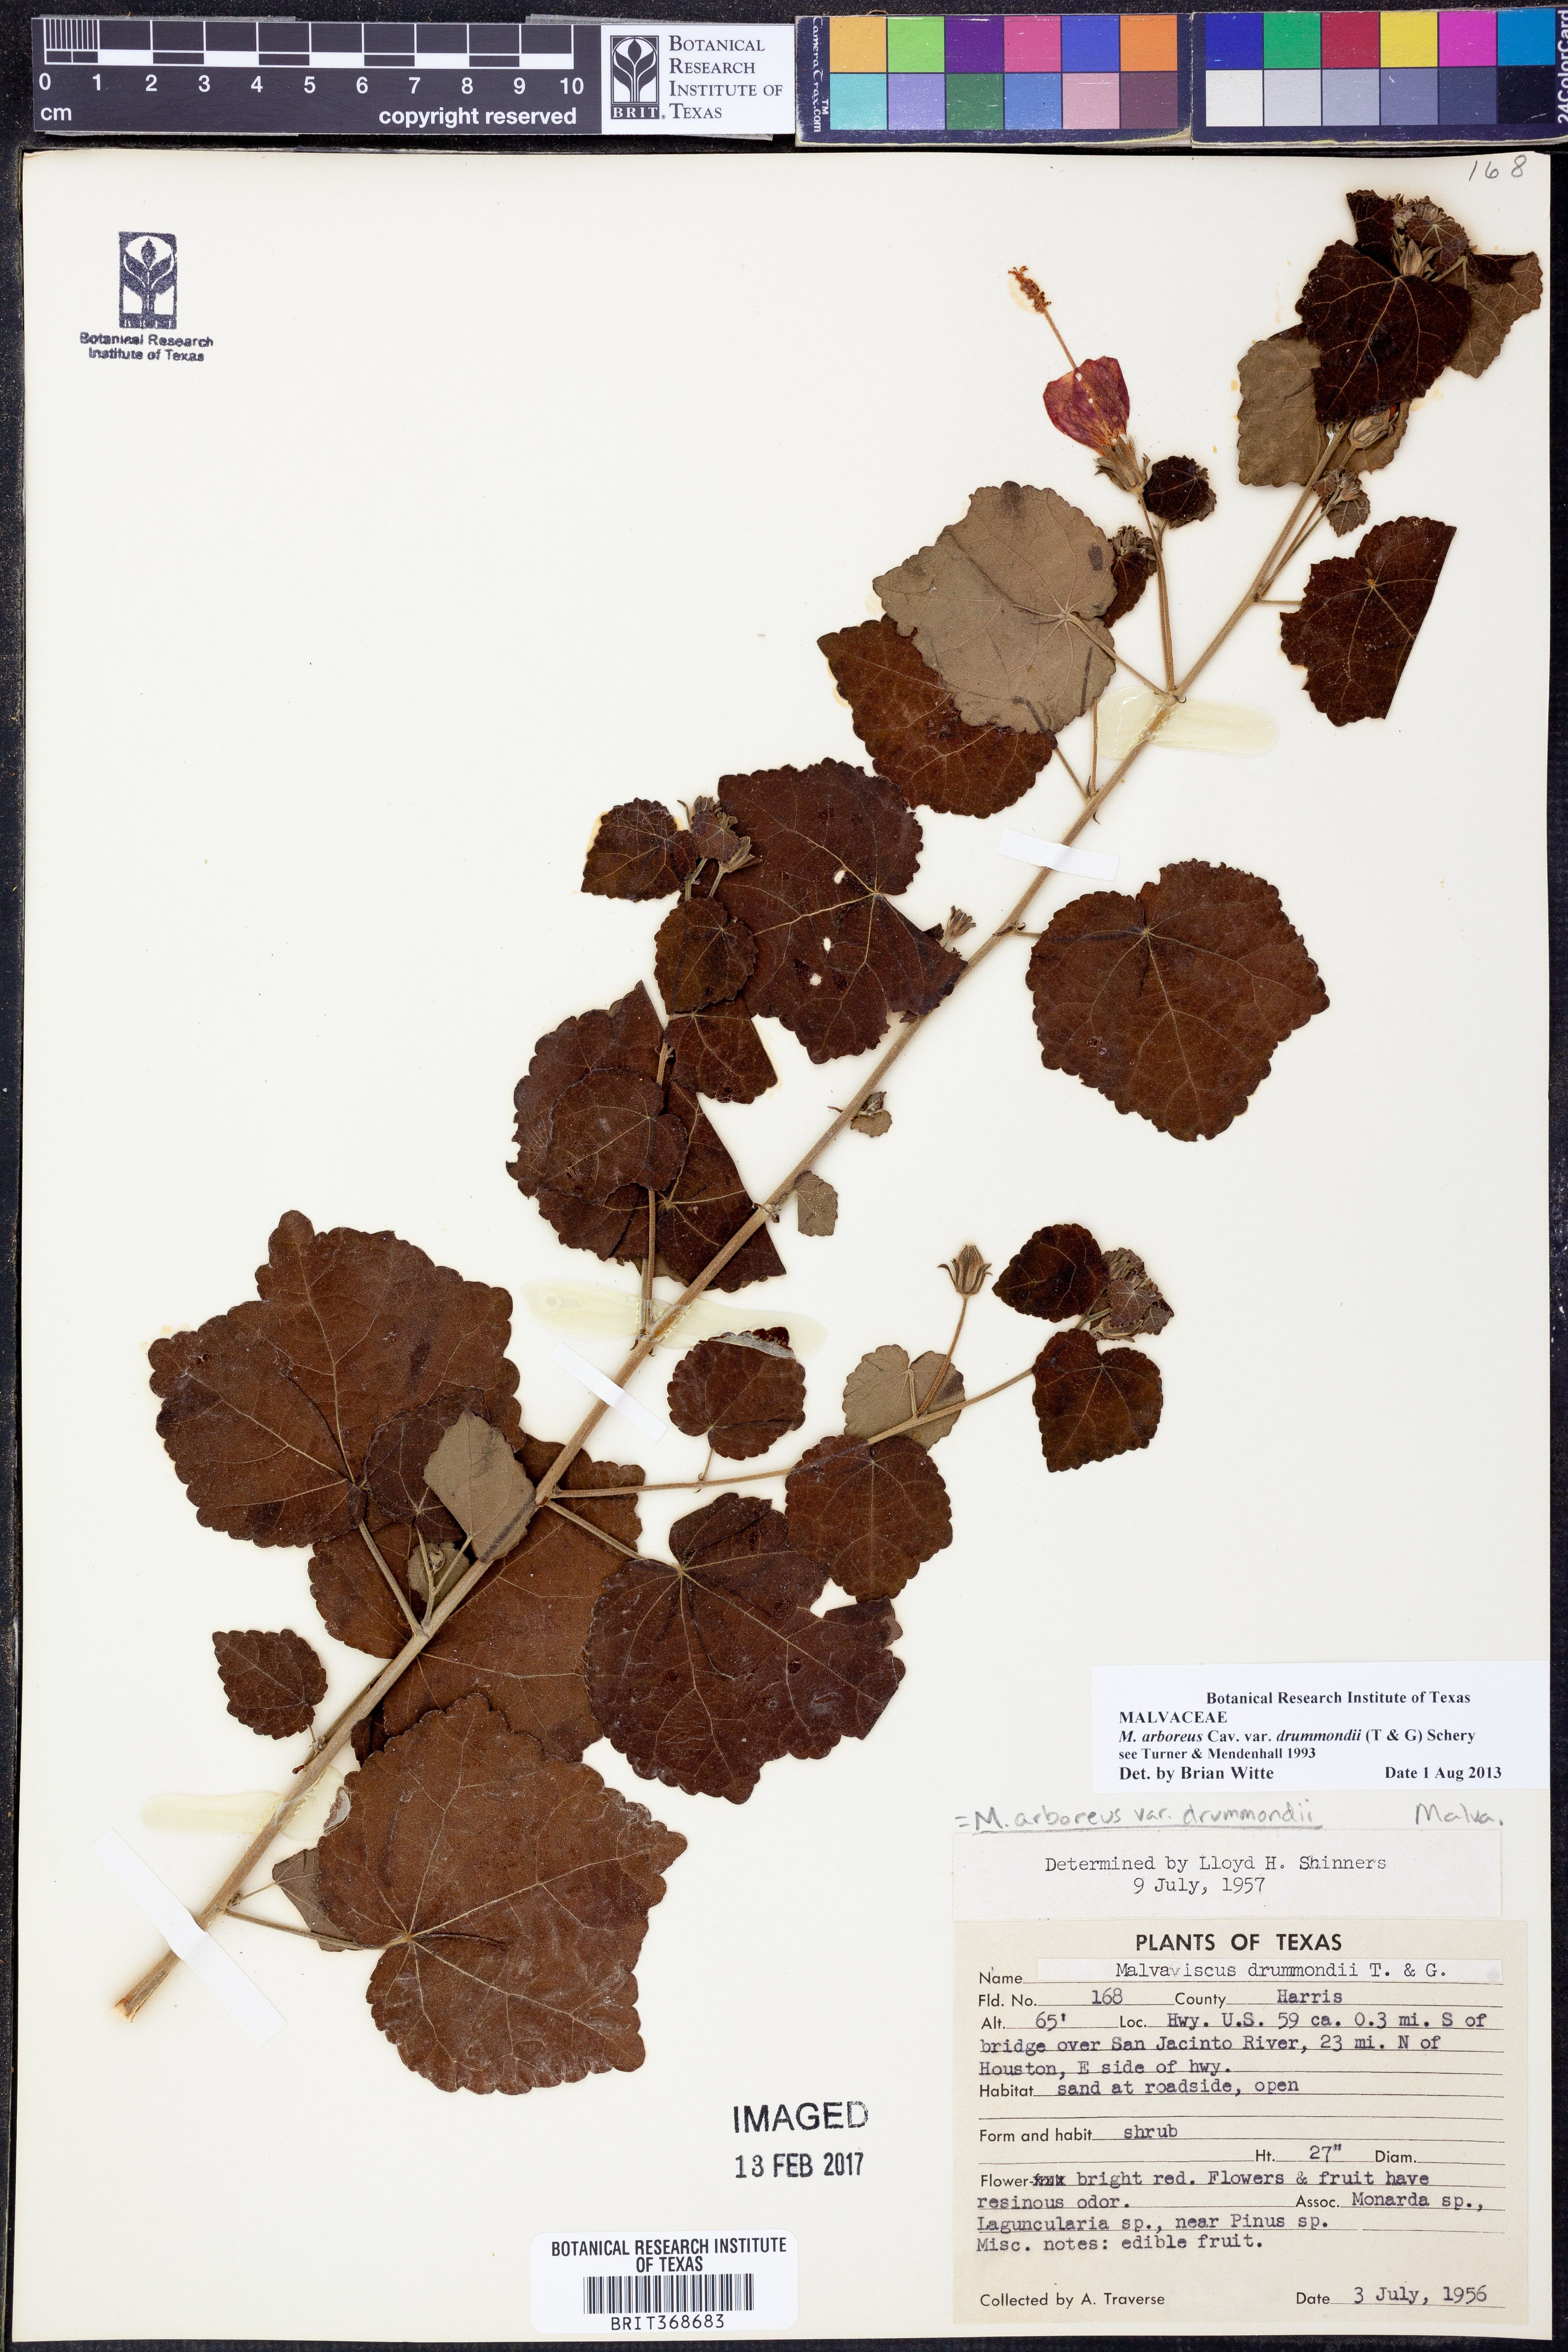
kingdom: Plantae
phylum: Tracheophyta
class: Magnoliopsida
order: Malvales
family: Malvaceae
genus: Malvaviscus
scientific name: Malvaviscus arboreus
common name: Wax mallow
